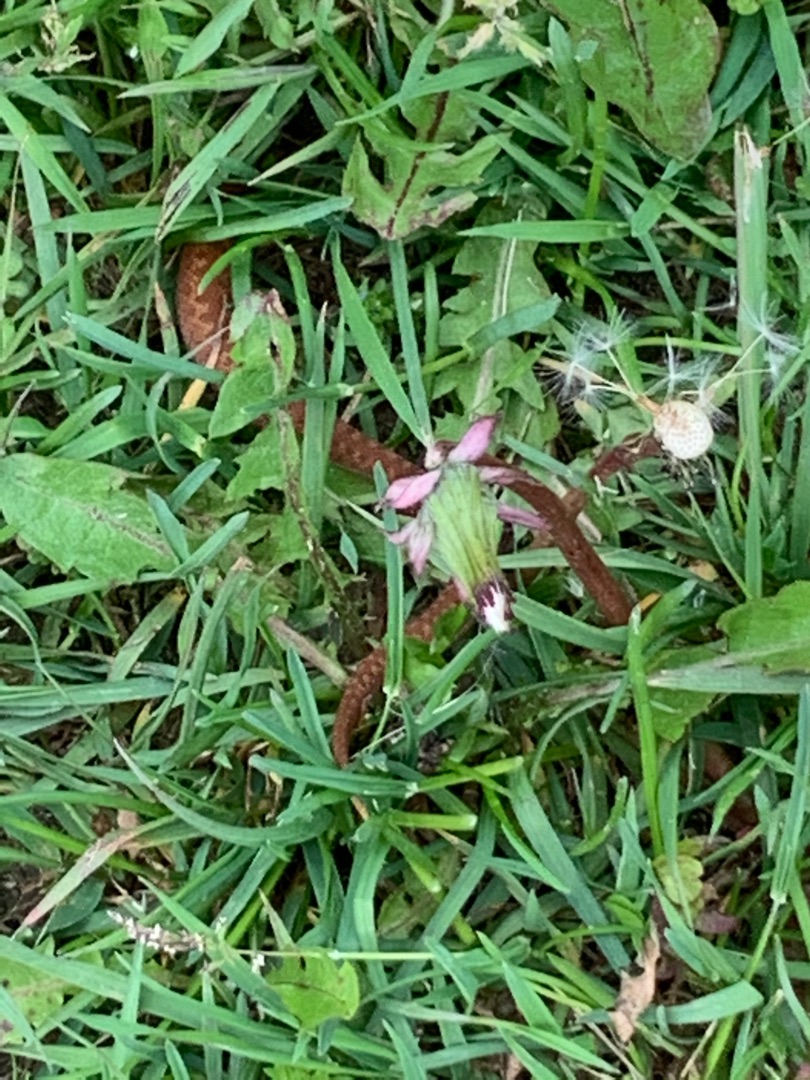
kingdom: Animalia
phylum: Chordata
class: Squamata
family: Viperidae
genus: Vipera
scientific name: Vipera berus
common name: Hugorm
